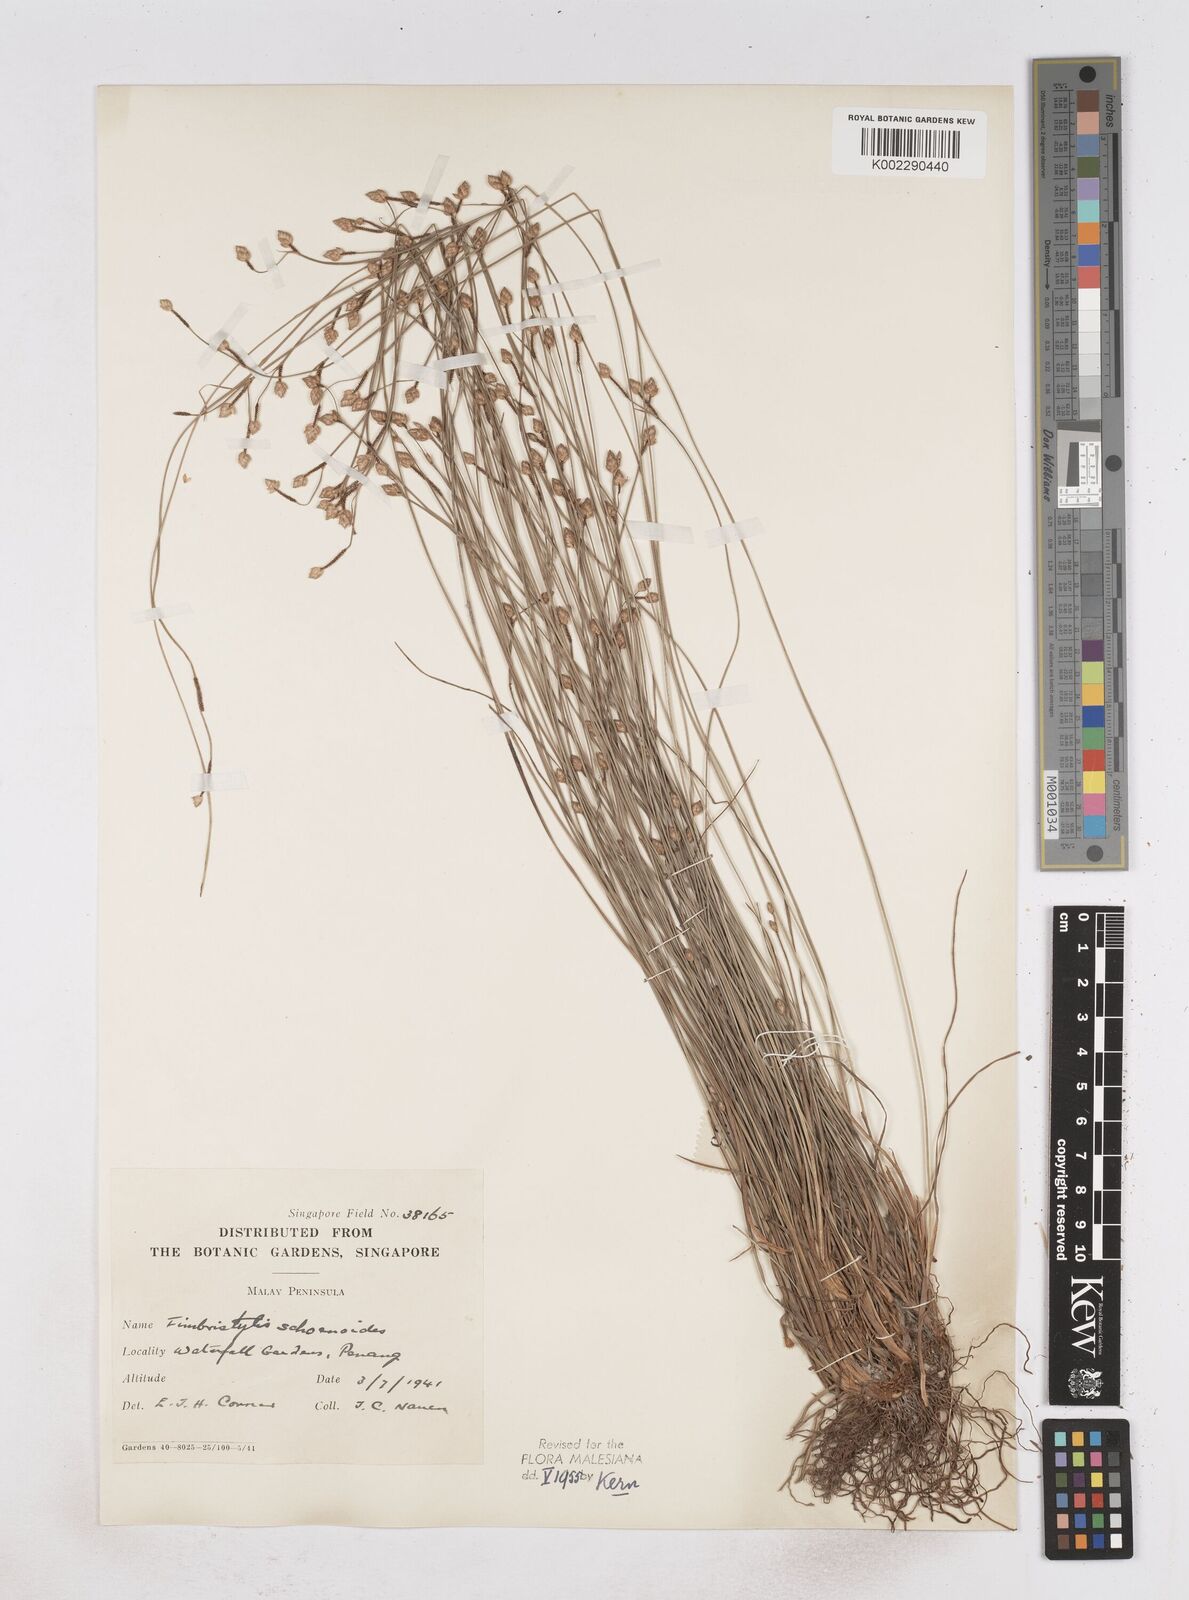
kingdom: Plantae
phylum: Tracheophyta
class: Liliopsida
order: Poales
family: Cyperaceae
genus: Fimbristylis
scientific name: Fimbristylis schoenoides
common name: Ditch fimbry
